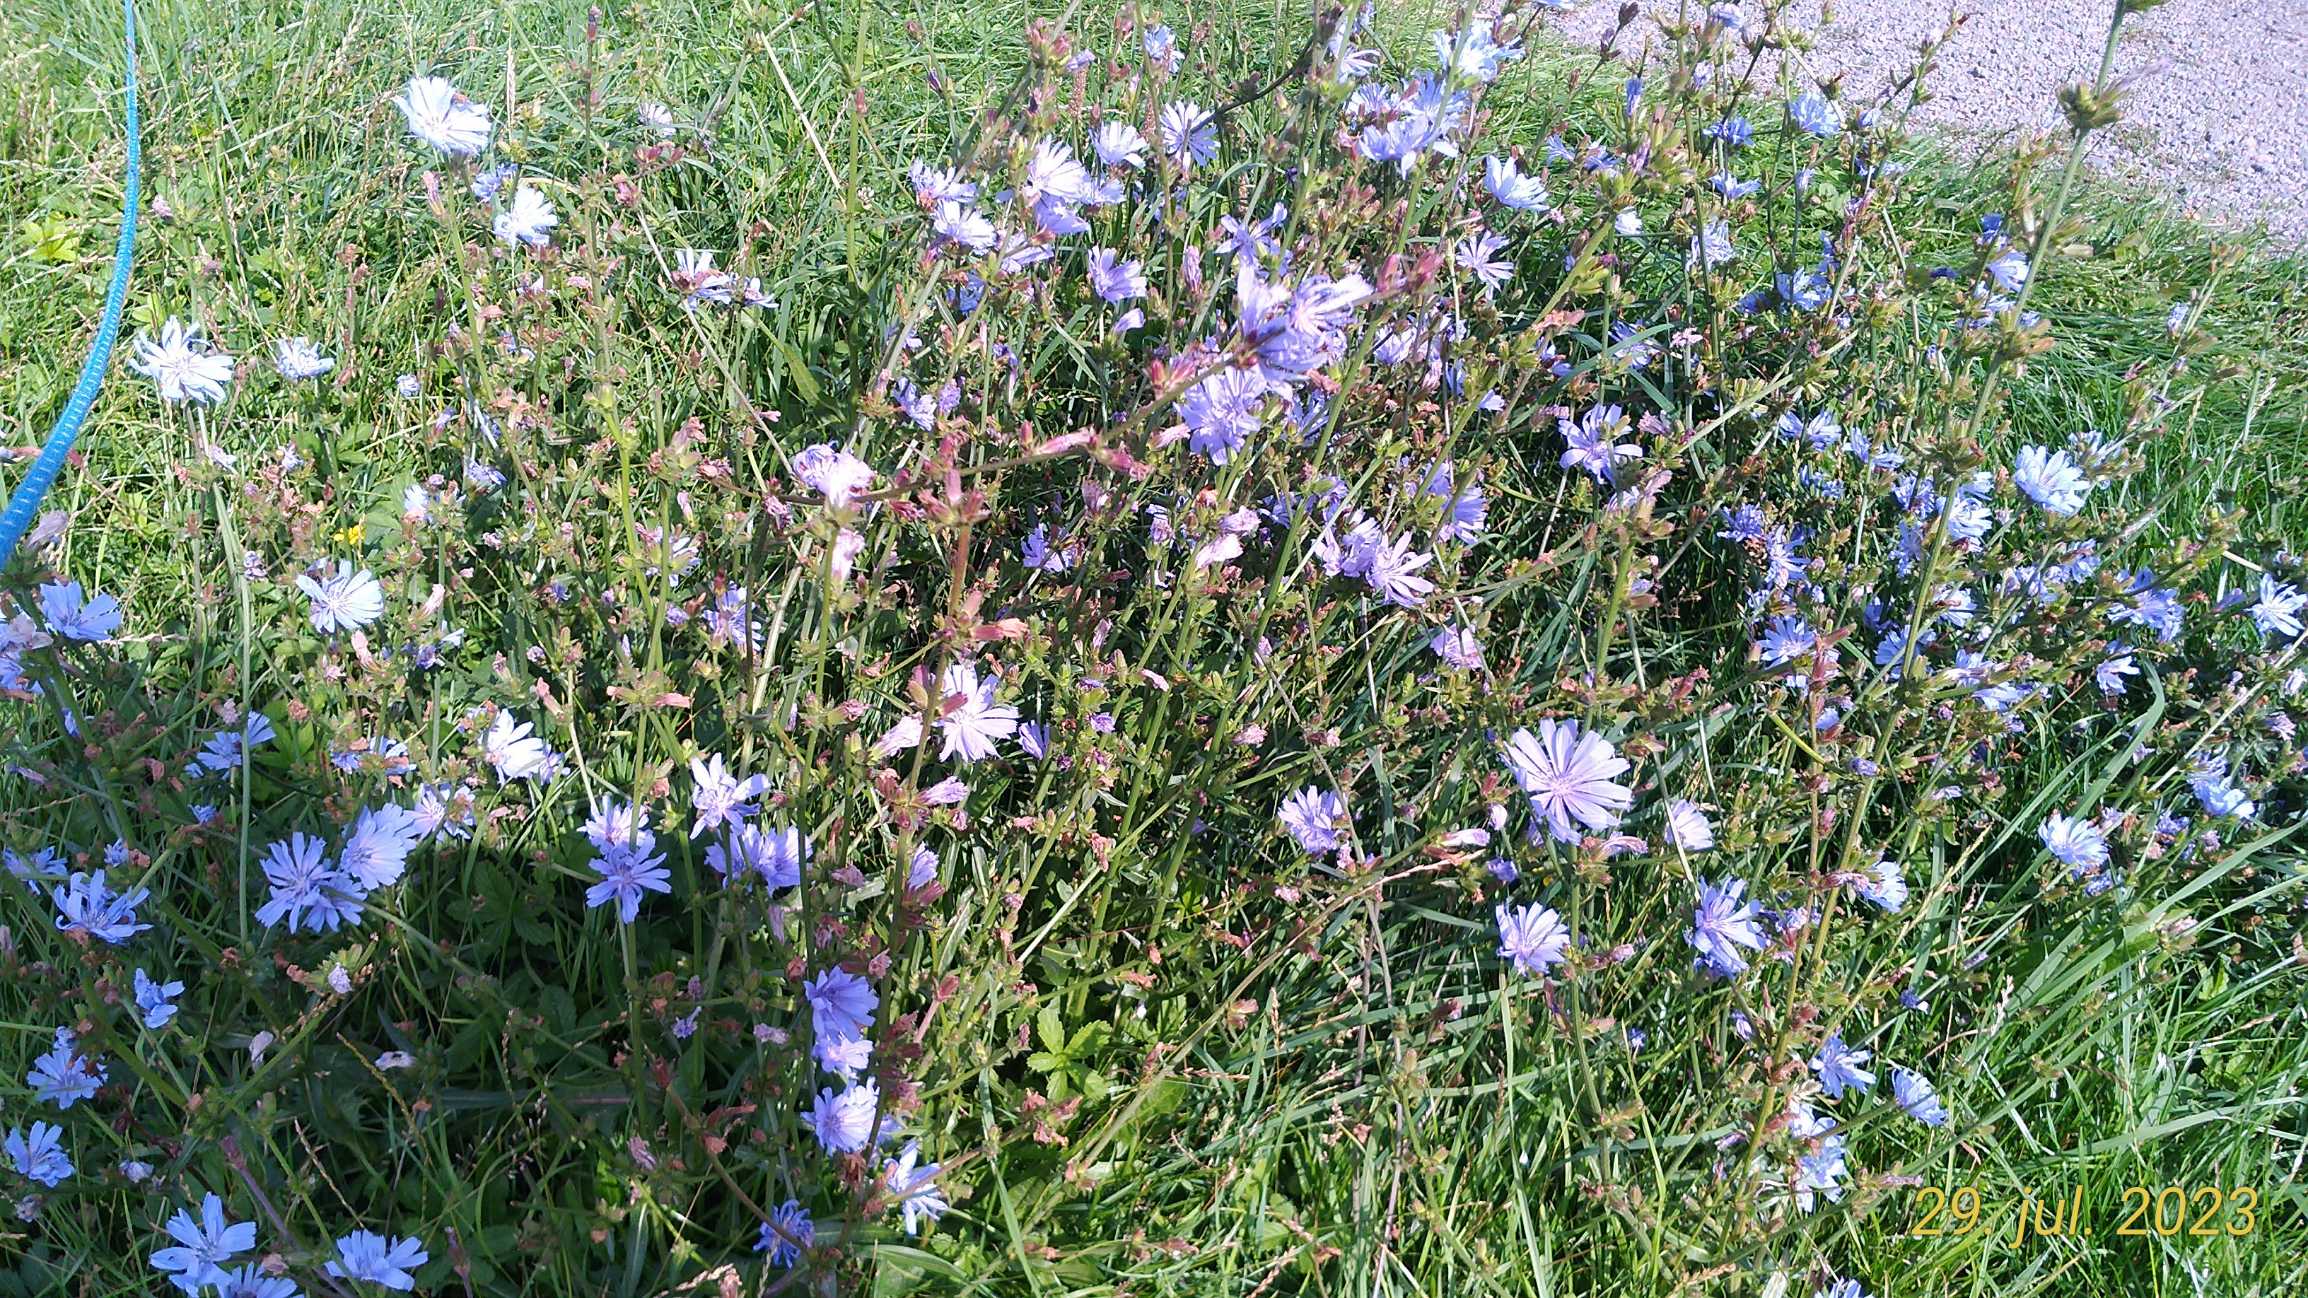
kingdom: Plantae
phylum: Tracheophyta
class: Magnoliopsida
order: Asterales
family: Asteraceae
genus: Cichorium
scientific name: Cichorium intybus
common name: Cikorie
